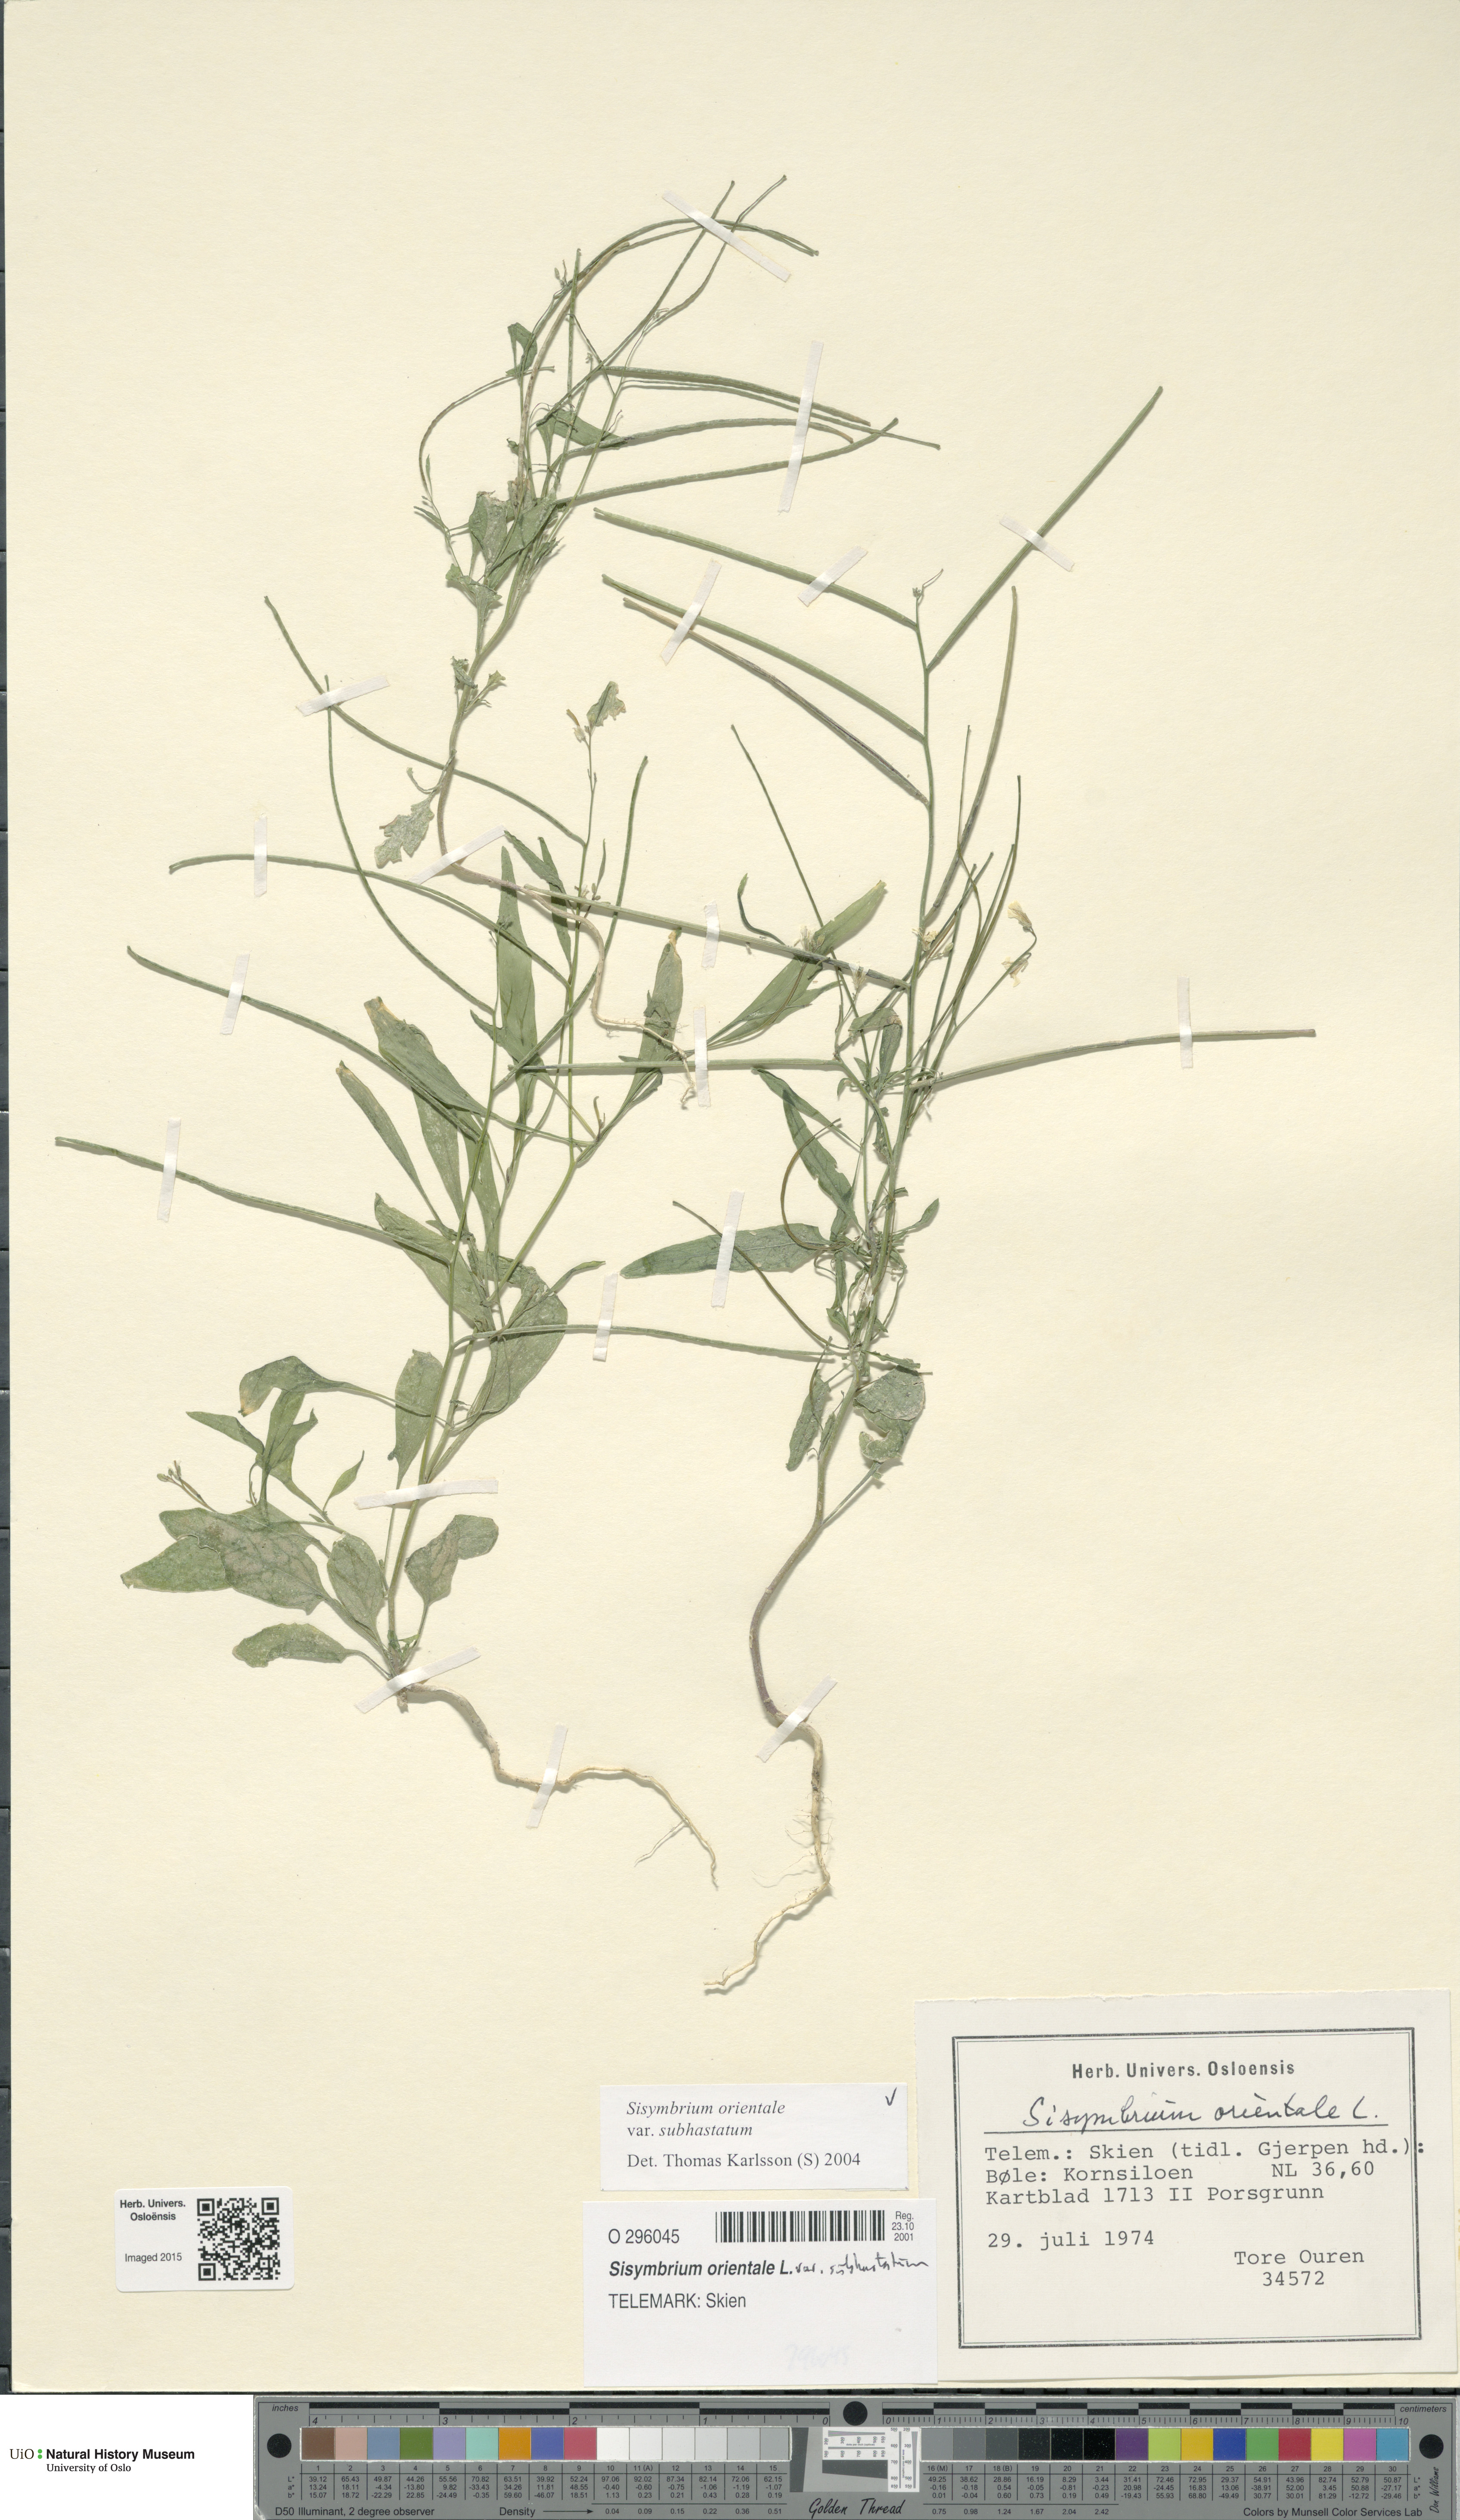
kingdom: Plantae
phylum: Tracheophyta
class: Magnoliopsida
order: Brassicales
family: Brassicaceae
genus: Sisymbrium
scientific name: Sisymbrium orientale
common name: Eastern rocket
